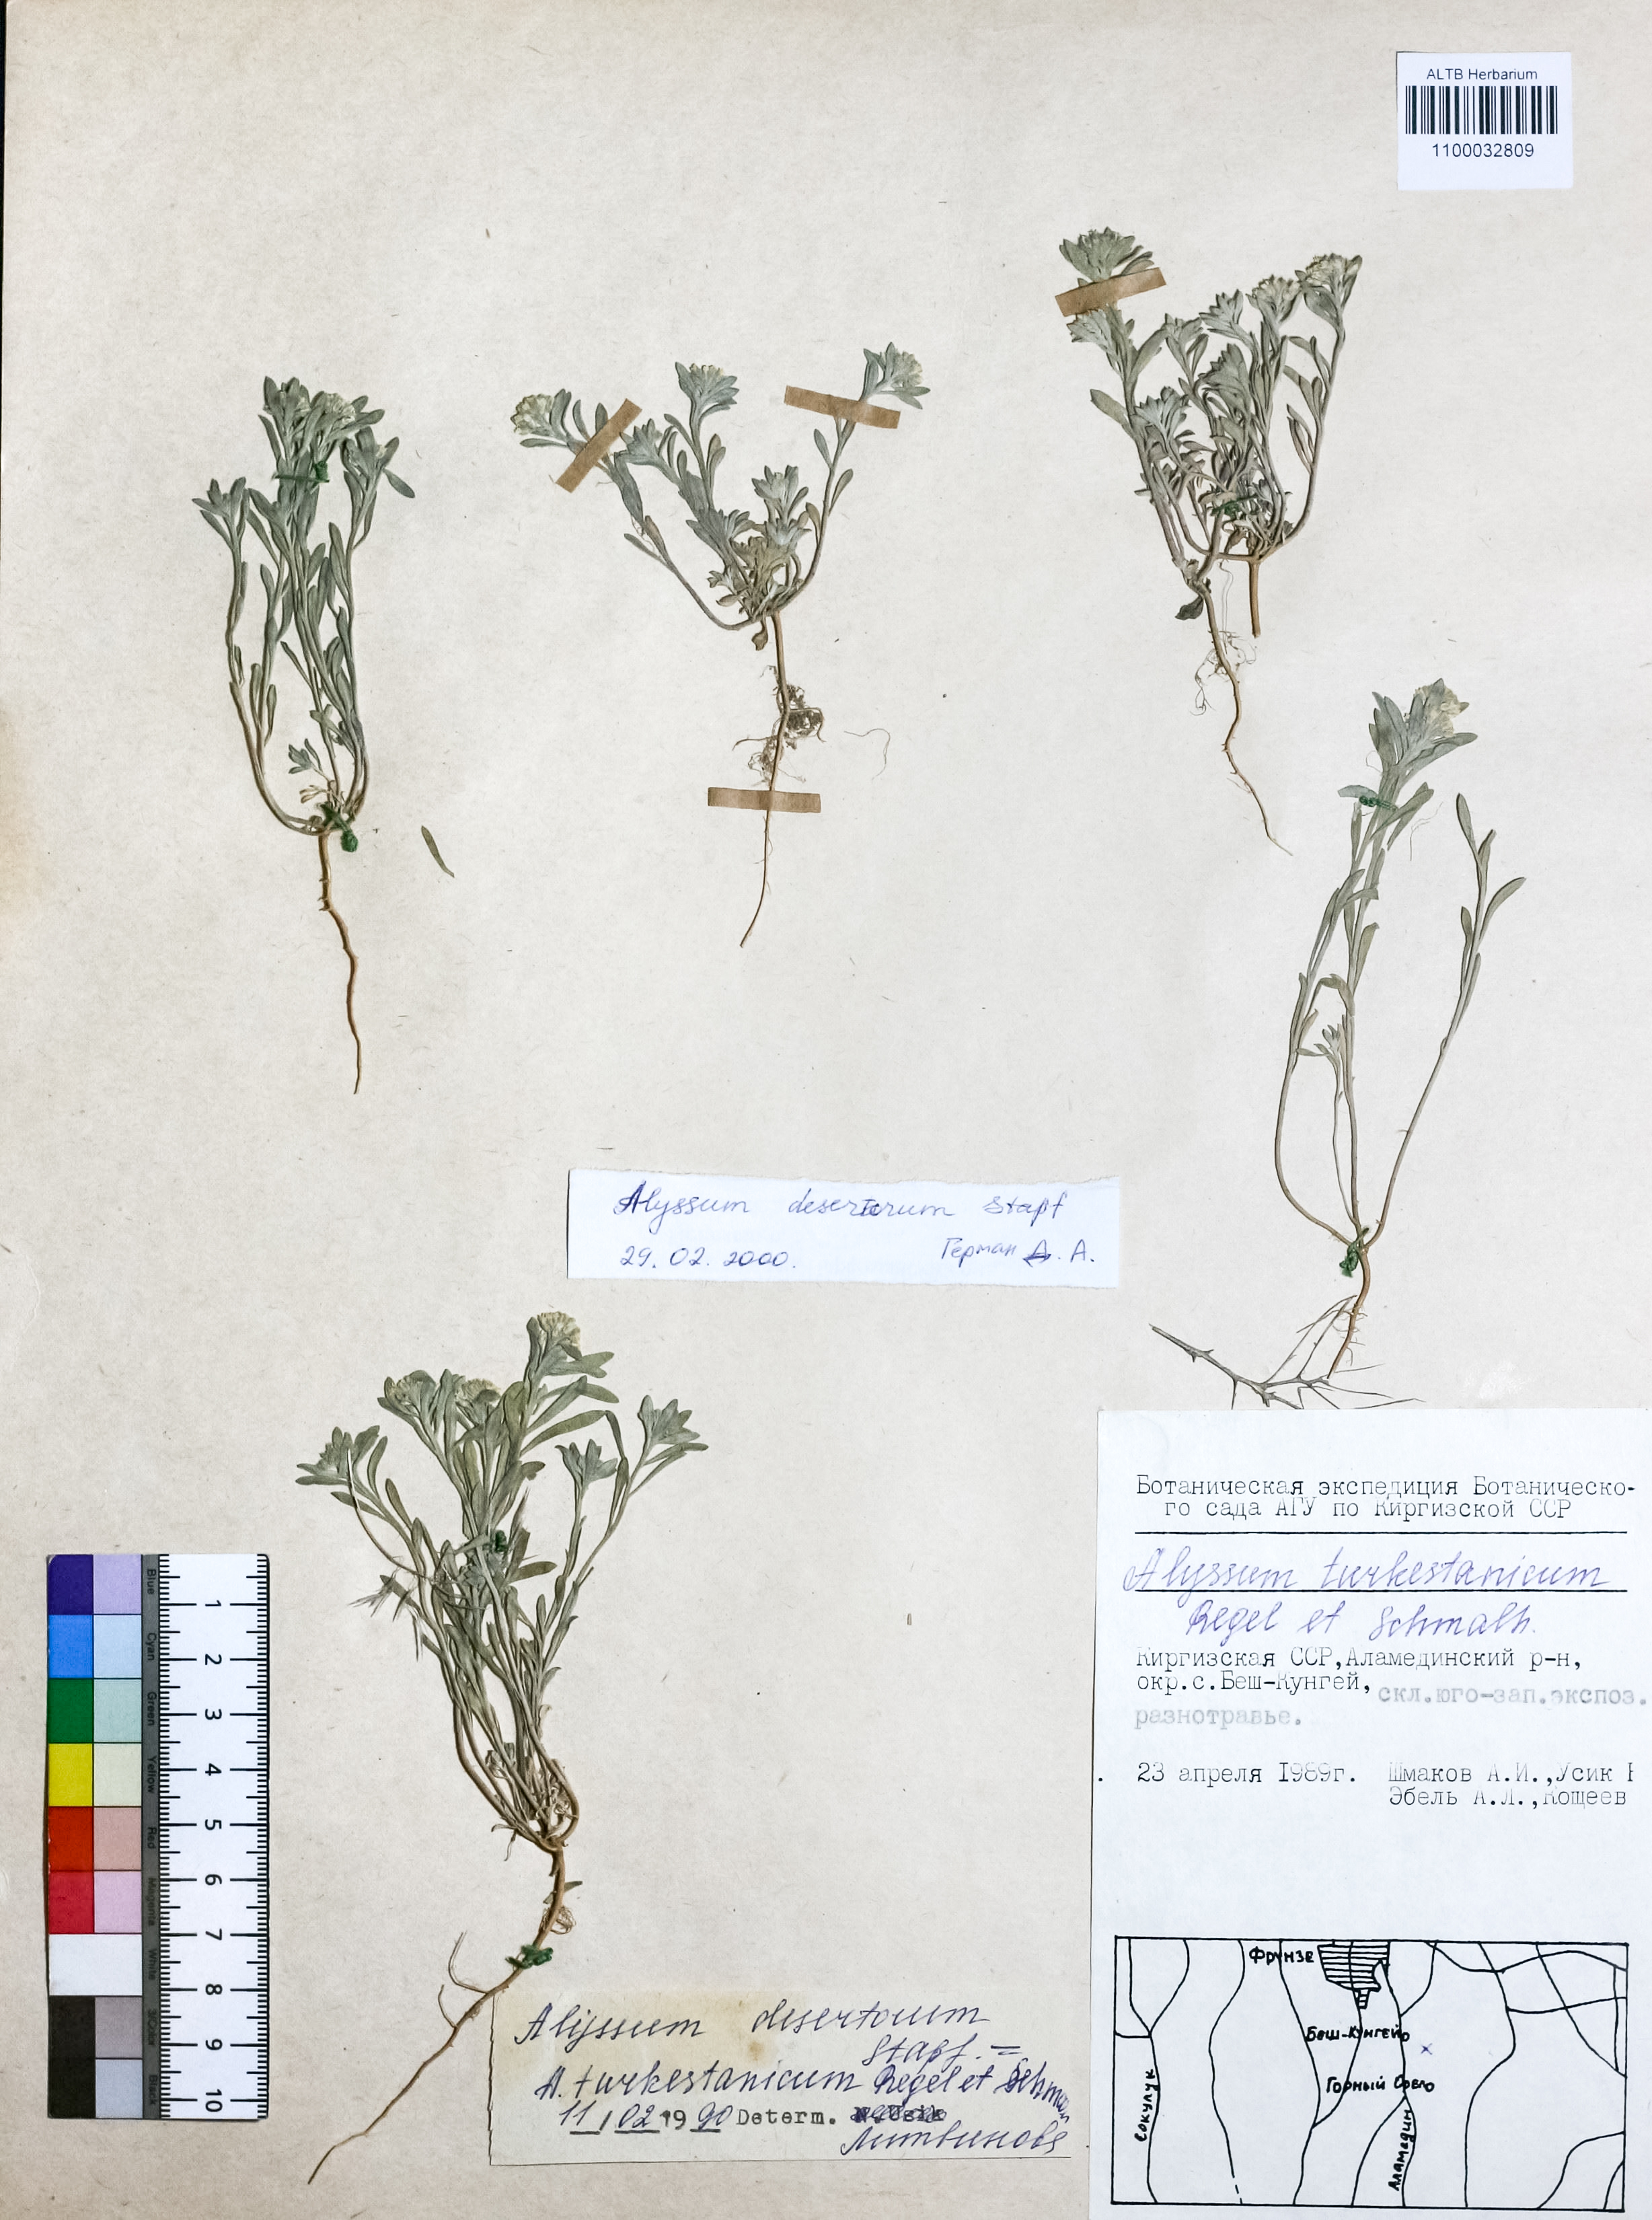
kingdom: Plantae
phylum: Tracheophyta
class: Magnoliopsida
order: Brassicales
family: Brassicaceae
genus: Alyssum
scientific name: Alyssum turkestanicum
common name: Desert alyssum
